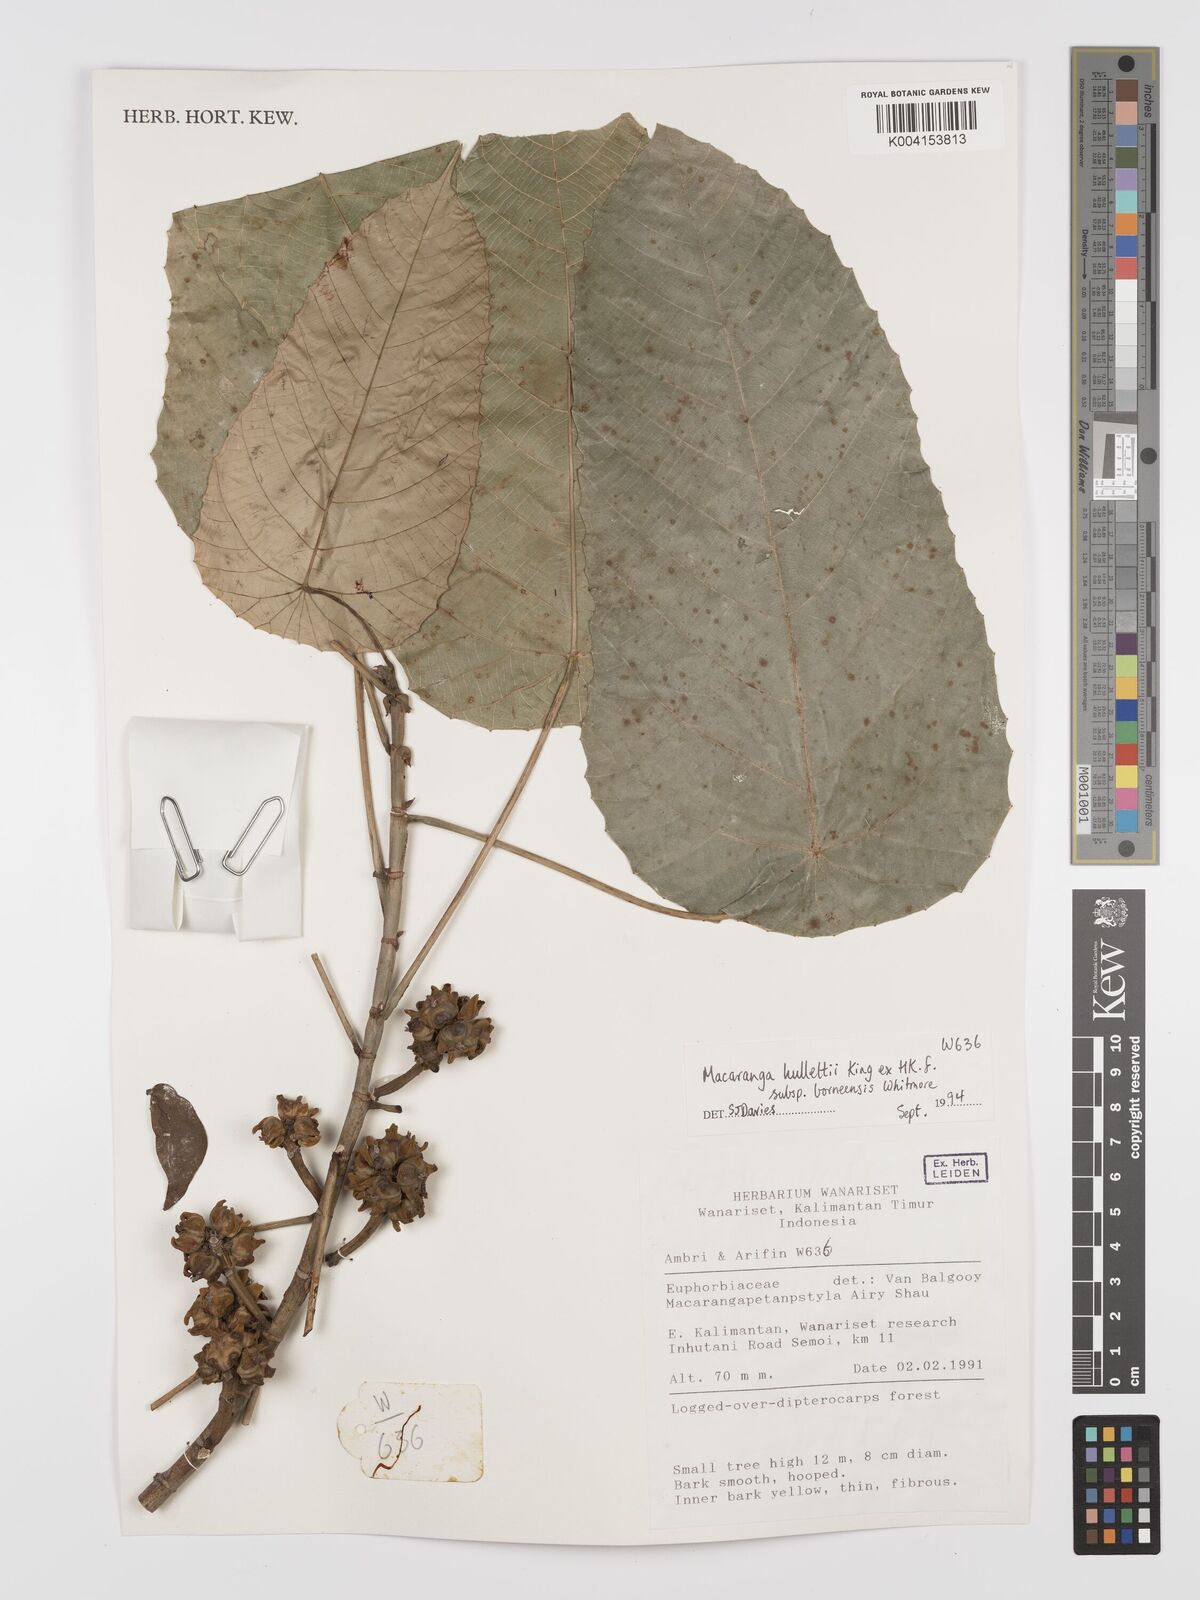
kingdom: Plantae
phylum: Tracheophyta
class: Magnoliopsida
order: Malpighiales
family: Euphorbiaceae
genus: Macaranga
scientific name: Macaranga hullettii
